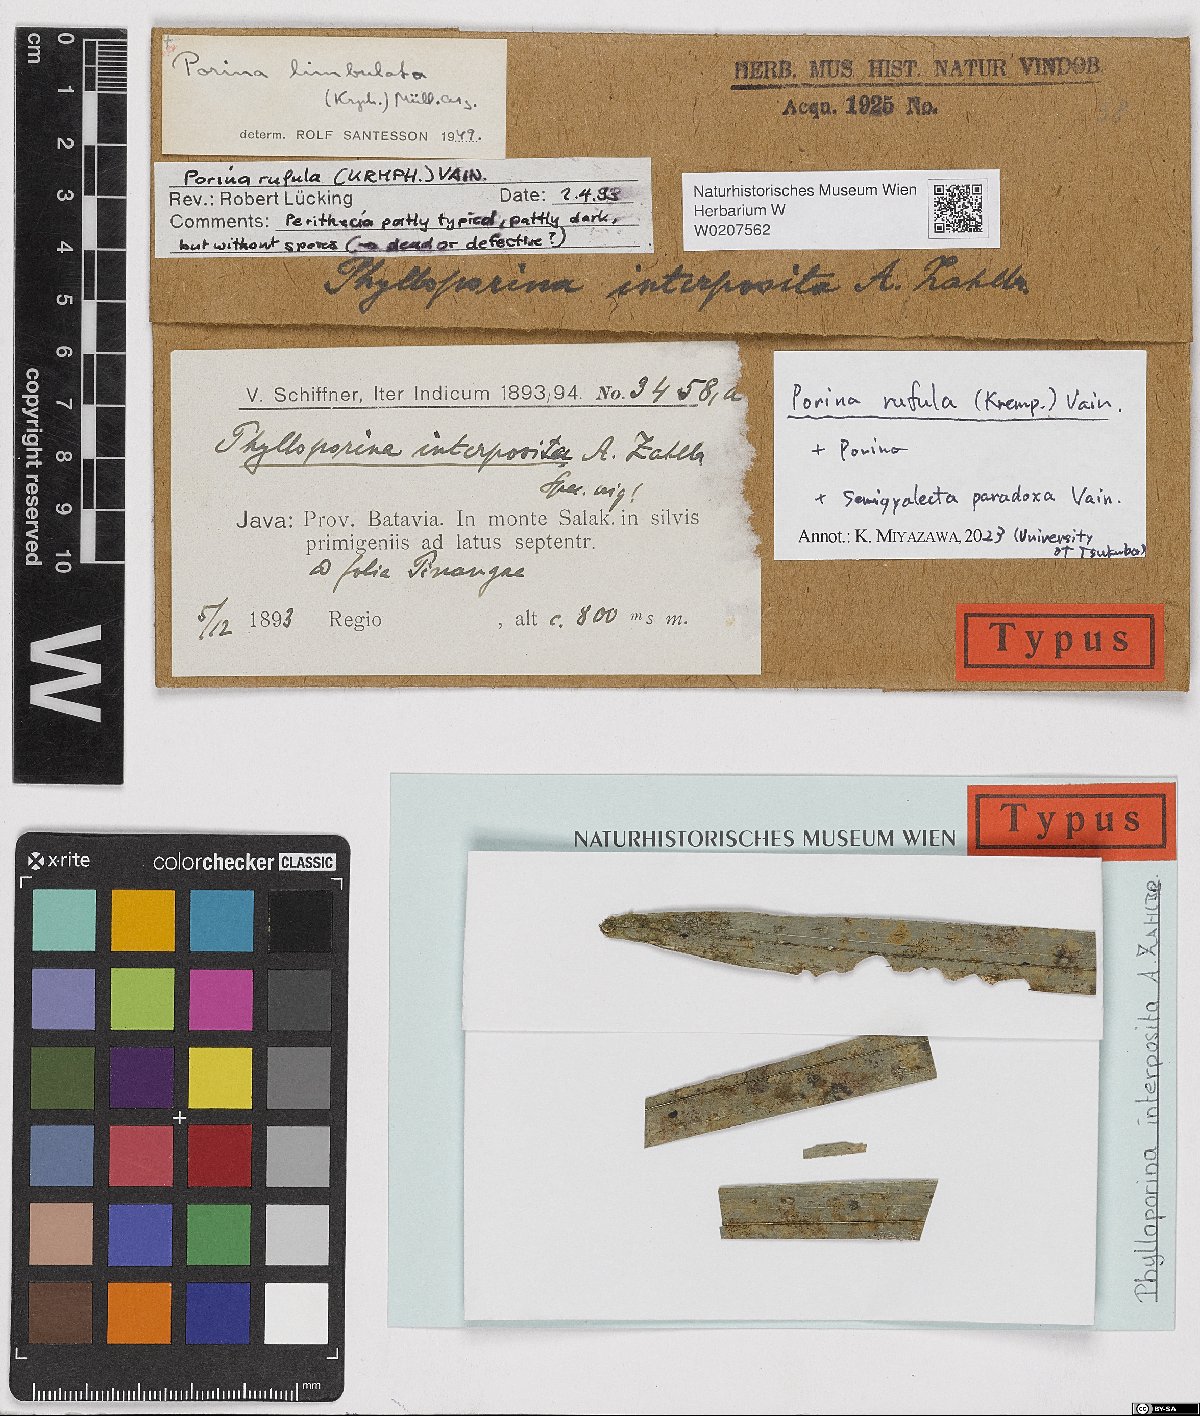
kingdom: Fungi
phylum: Ascomycota
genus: Phylloporina
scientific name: Phylloporina
